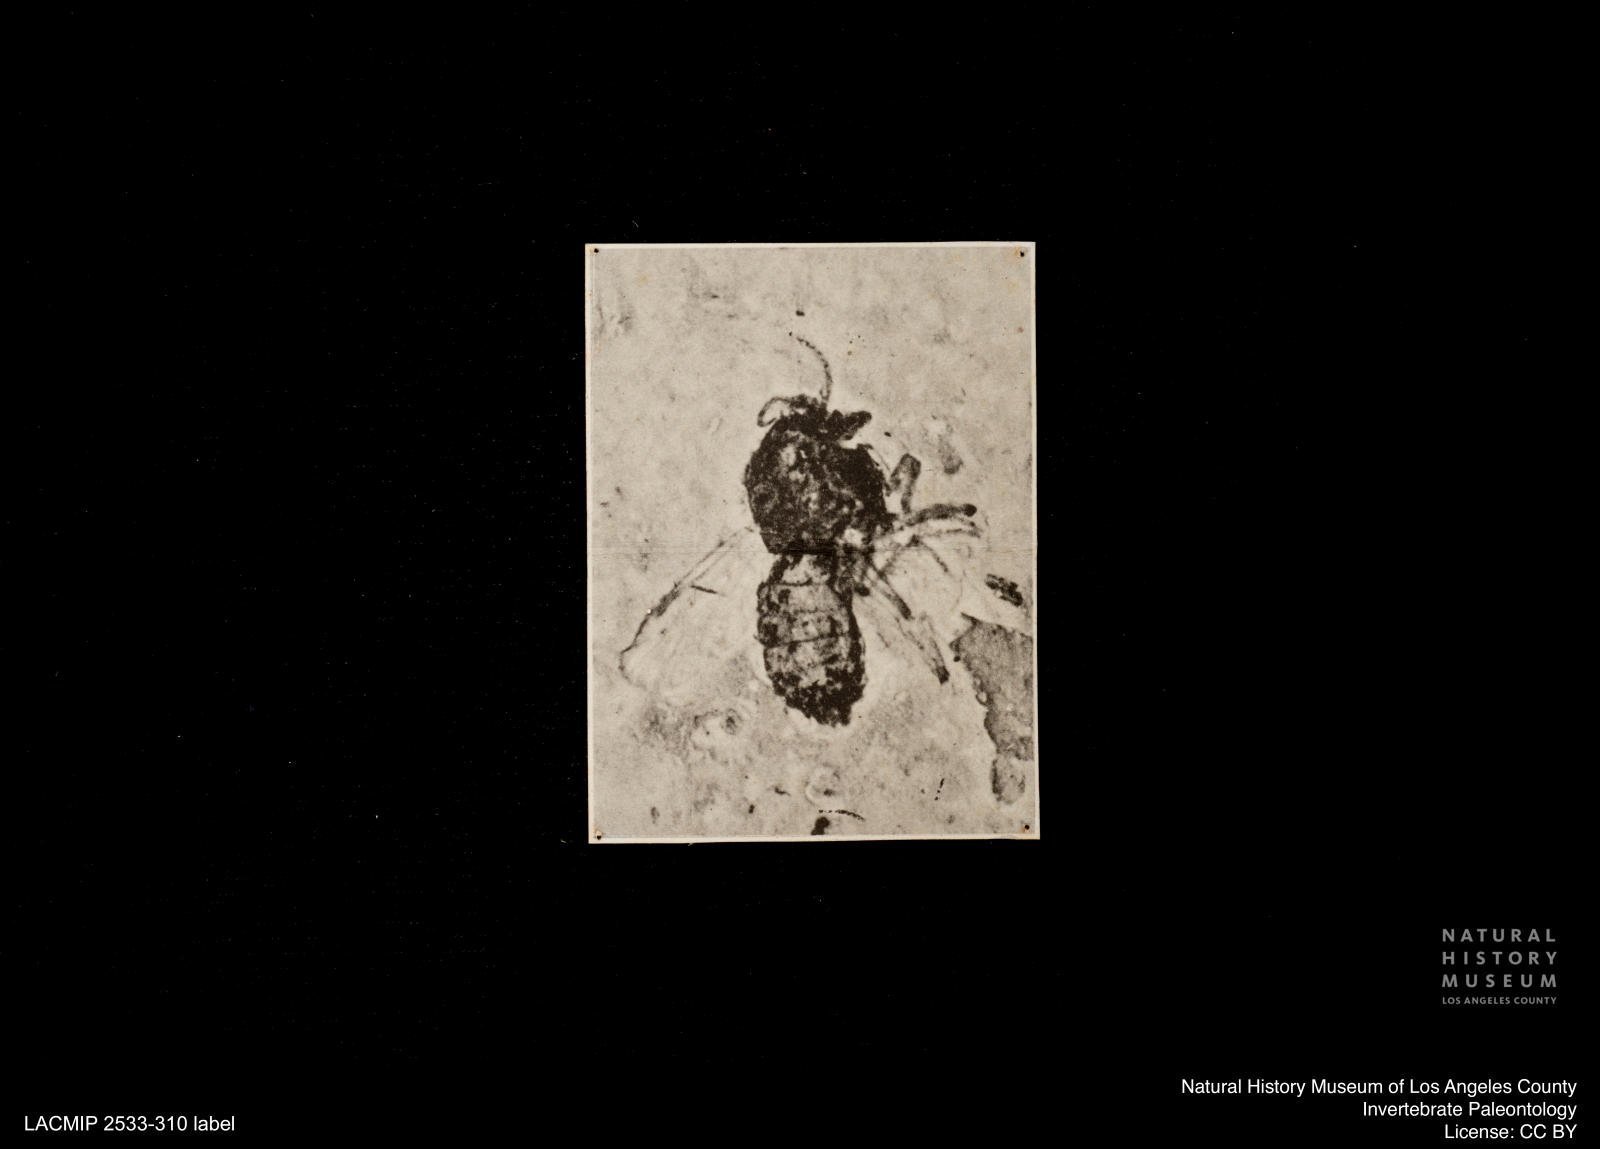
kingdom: Animalia
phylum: Arthropoda
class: Insecta
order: Diptera
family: Ceratopogonidae
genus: Bezzia
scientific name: Bezzia longipennis
